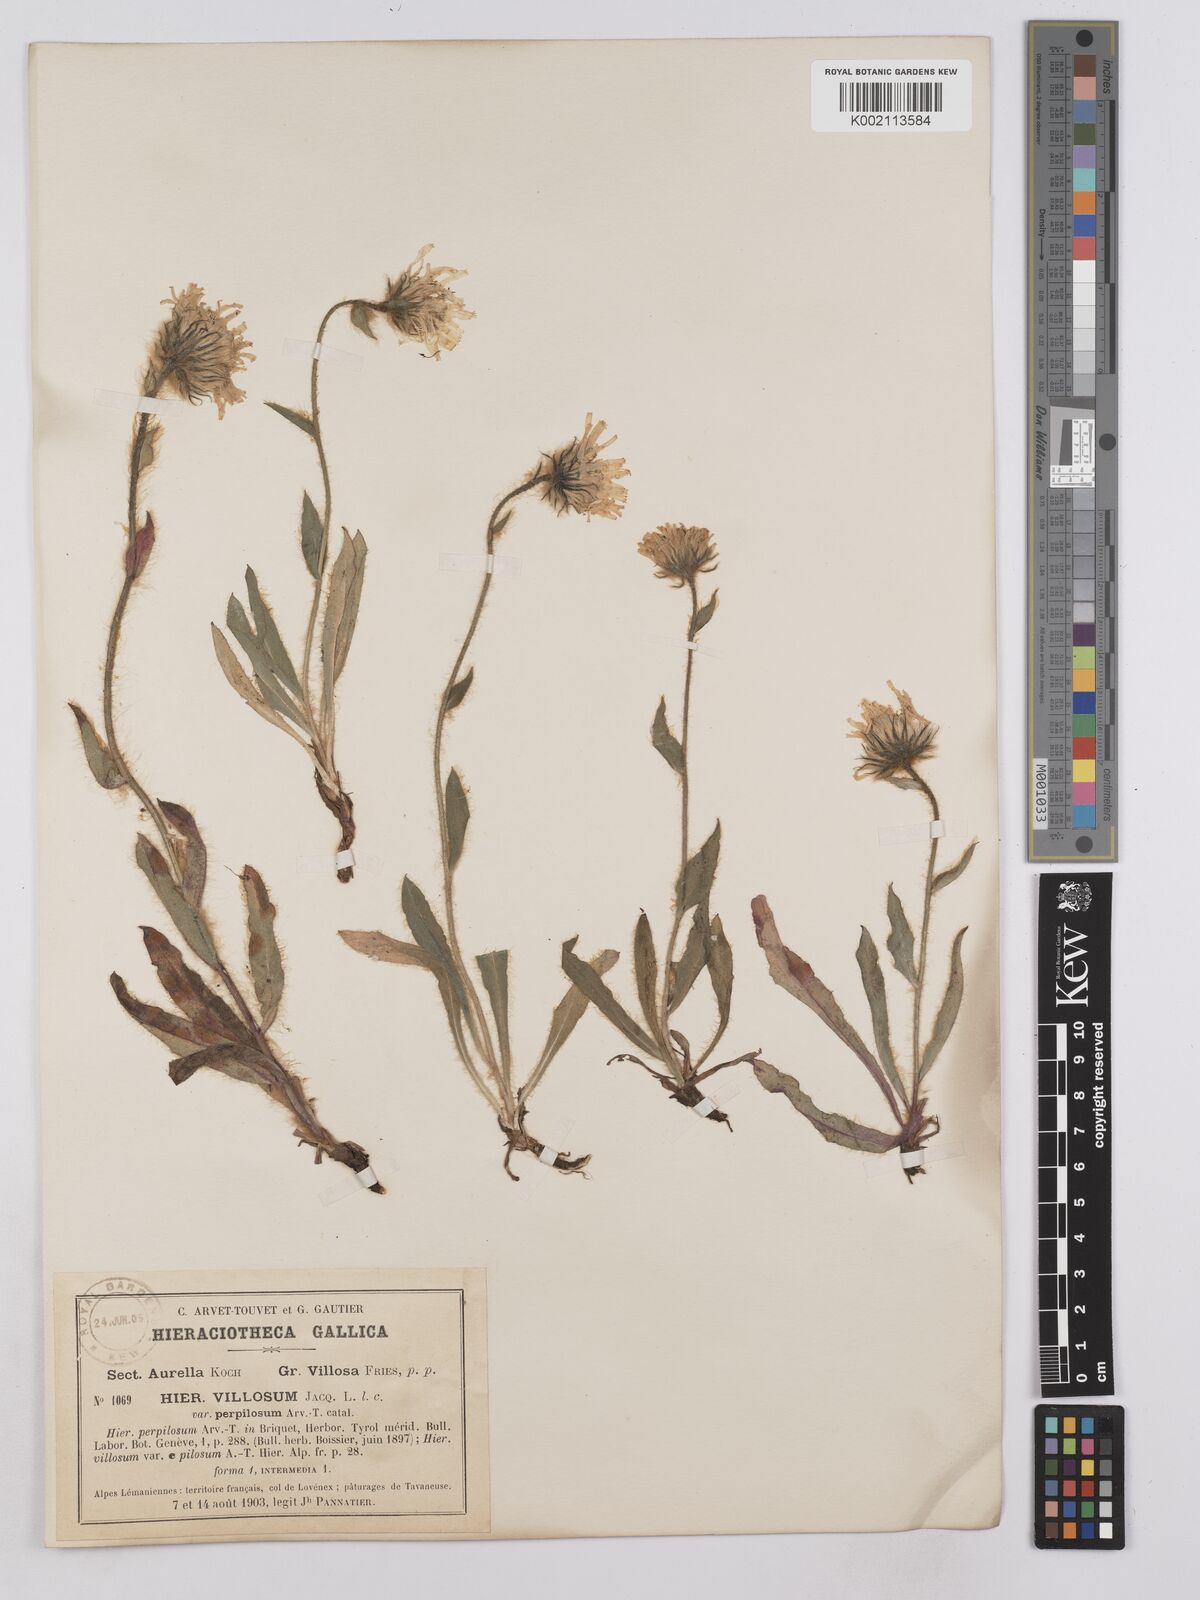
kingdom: Plantae
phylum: Tracheophyta
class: Magnoliopsida
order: Asterales
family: Asteraceae
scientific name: Asteraceae
